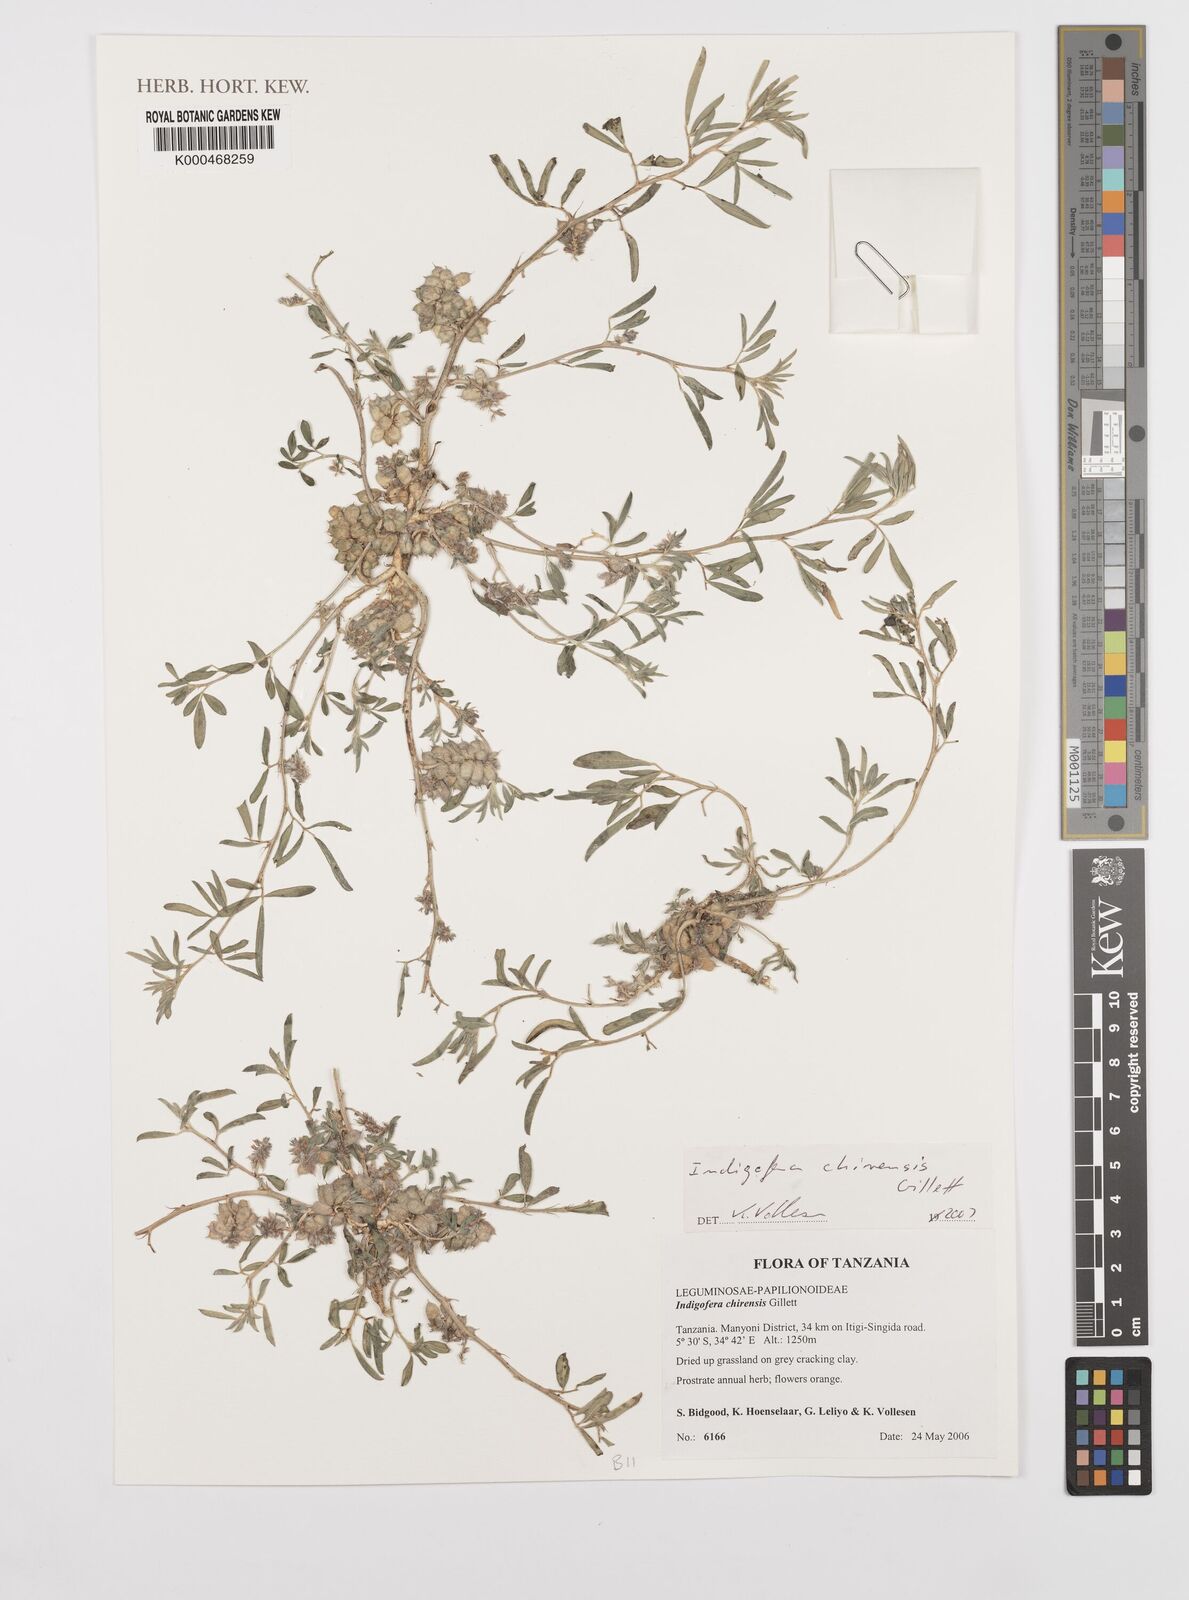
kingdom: Plantae
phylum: Tracheophyta
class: Magnoliopsida
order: Fabales
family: Fabaceae
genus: Indigofera
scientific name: Indigofera chirensis
